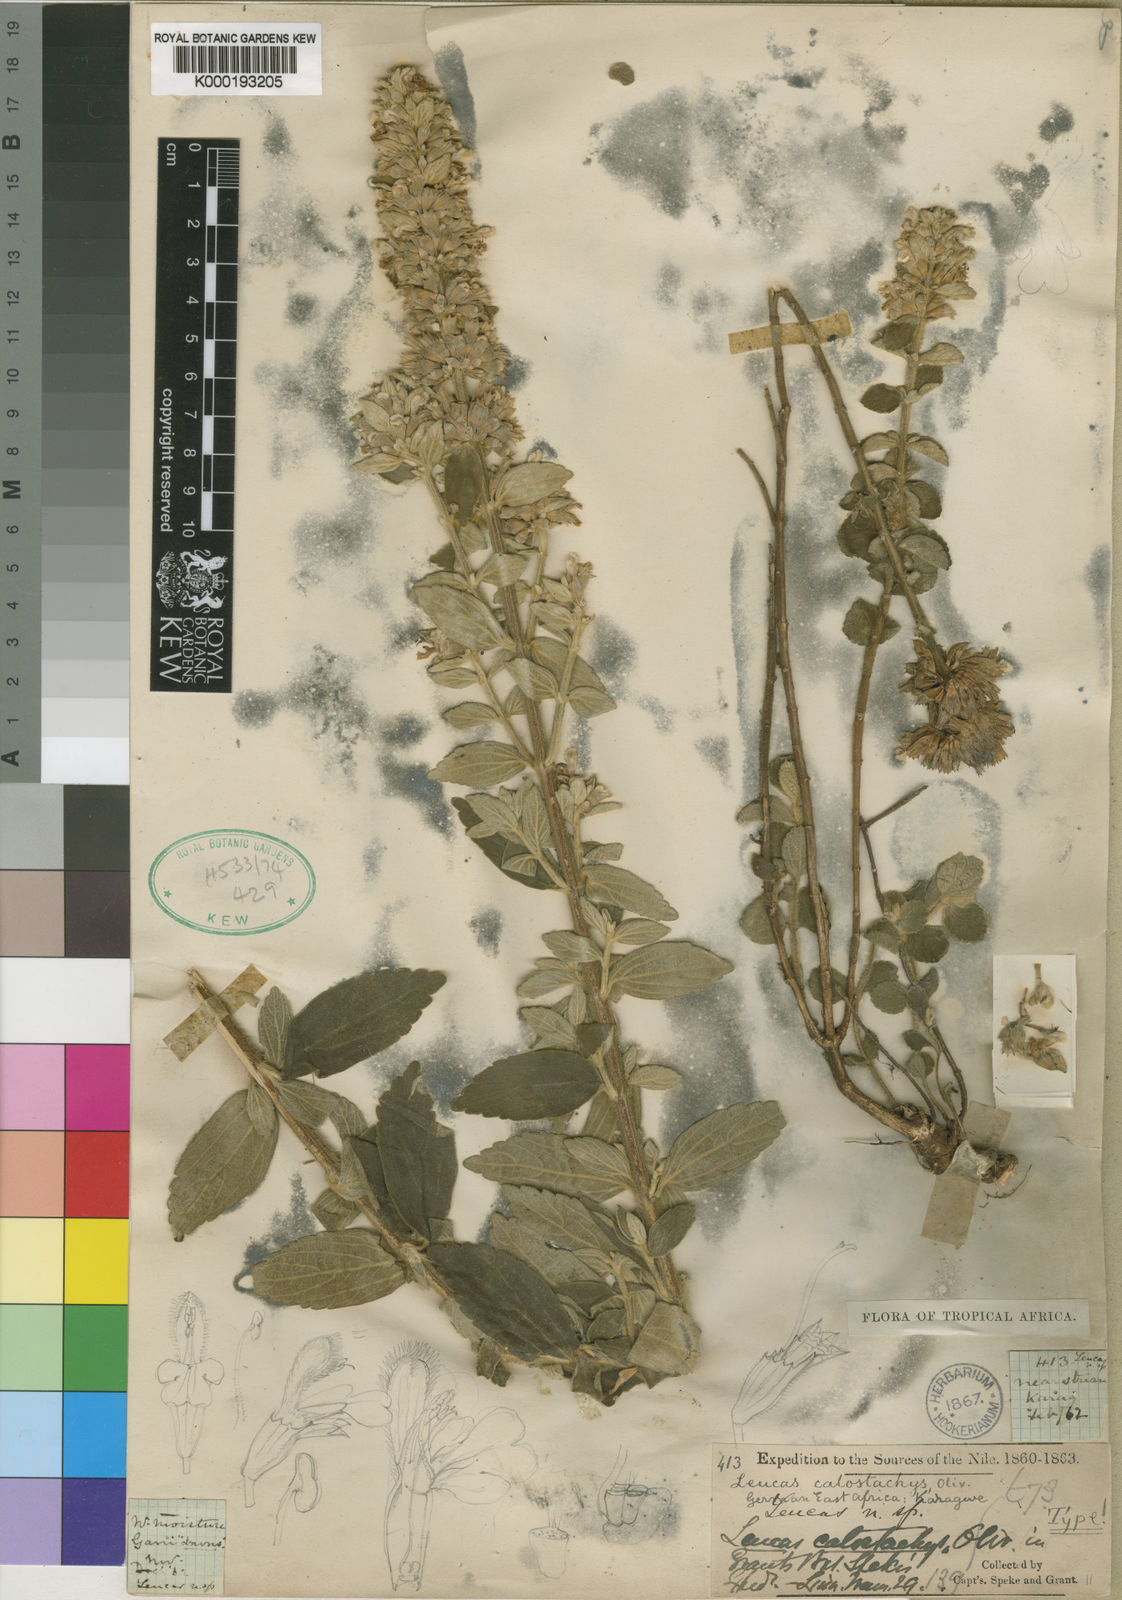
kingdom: Plantae
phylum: Tracheophyta
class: Magnoliopsida
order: Lamiales
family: Lamiaceae
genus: Leucas
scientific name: Leucas calostachys
